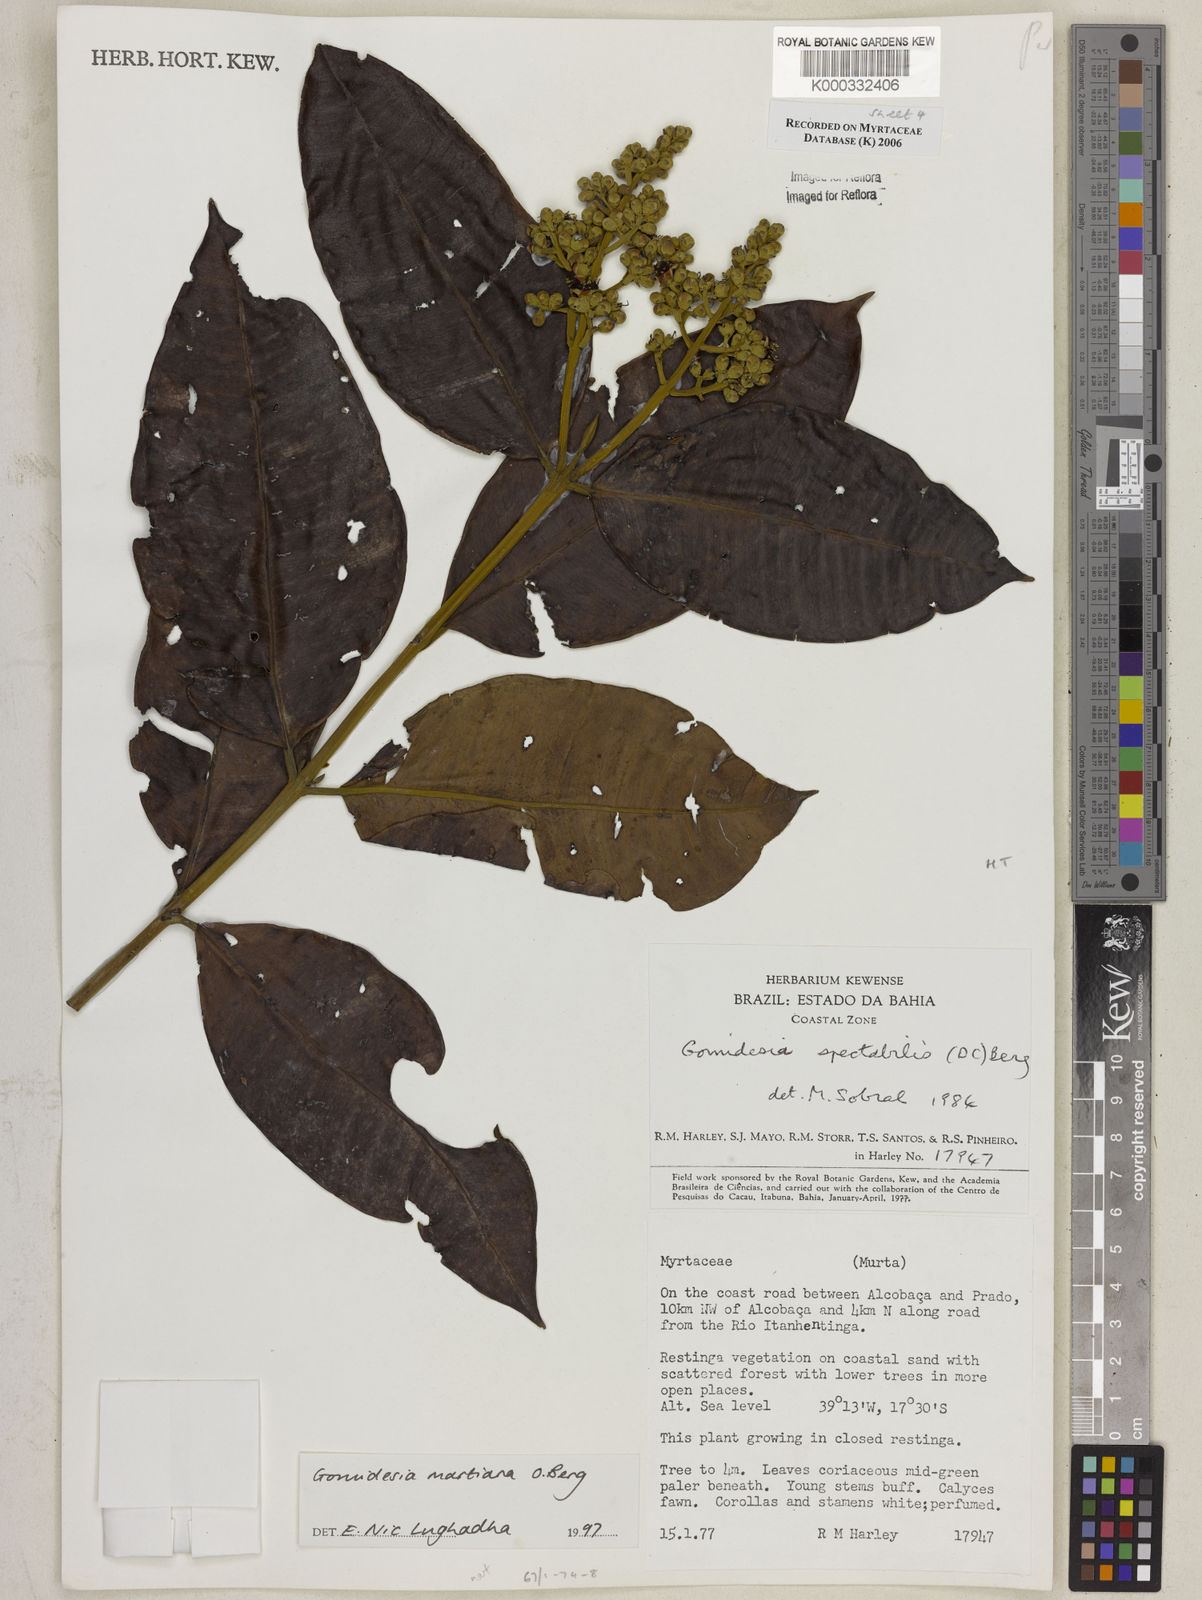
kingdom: Plantae
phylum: Tracheophyta
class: Magnoliopsida
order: Myrtales
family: Myrtaceae
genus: Myrcia
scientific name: Myrcia vittoriana
